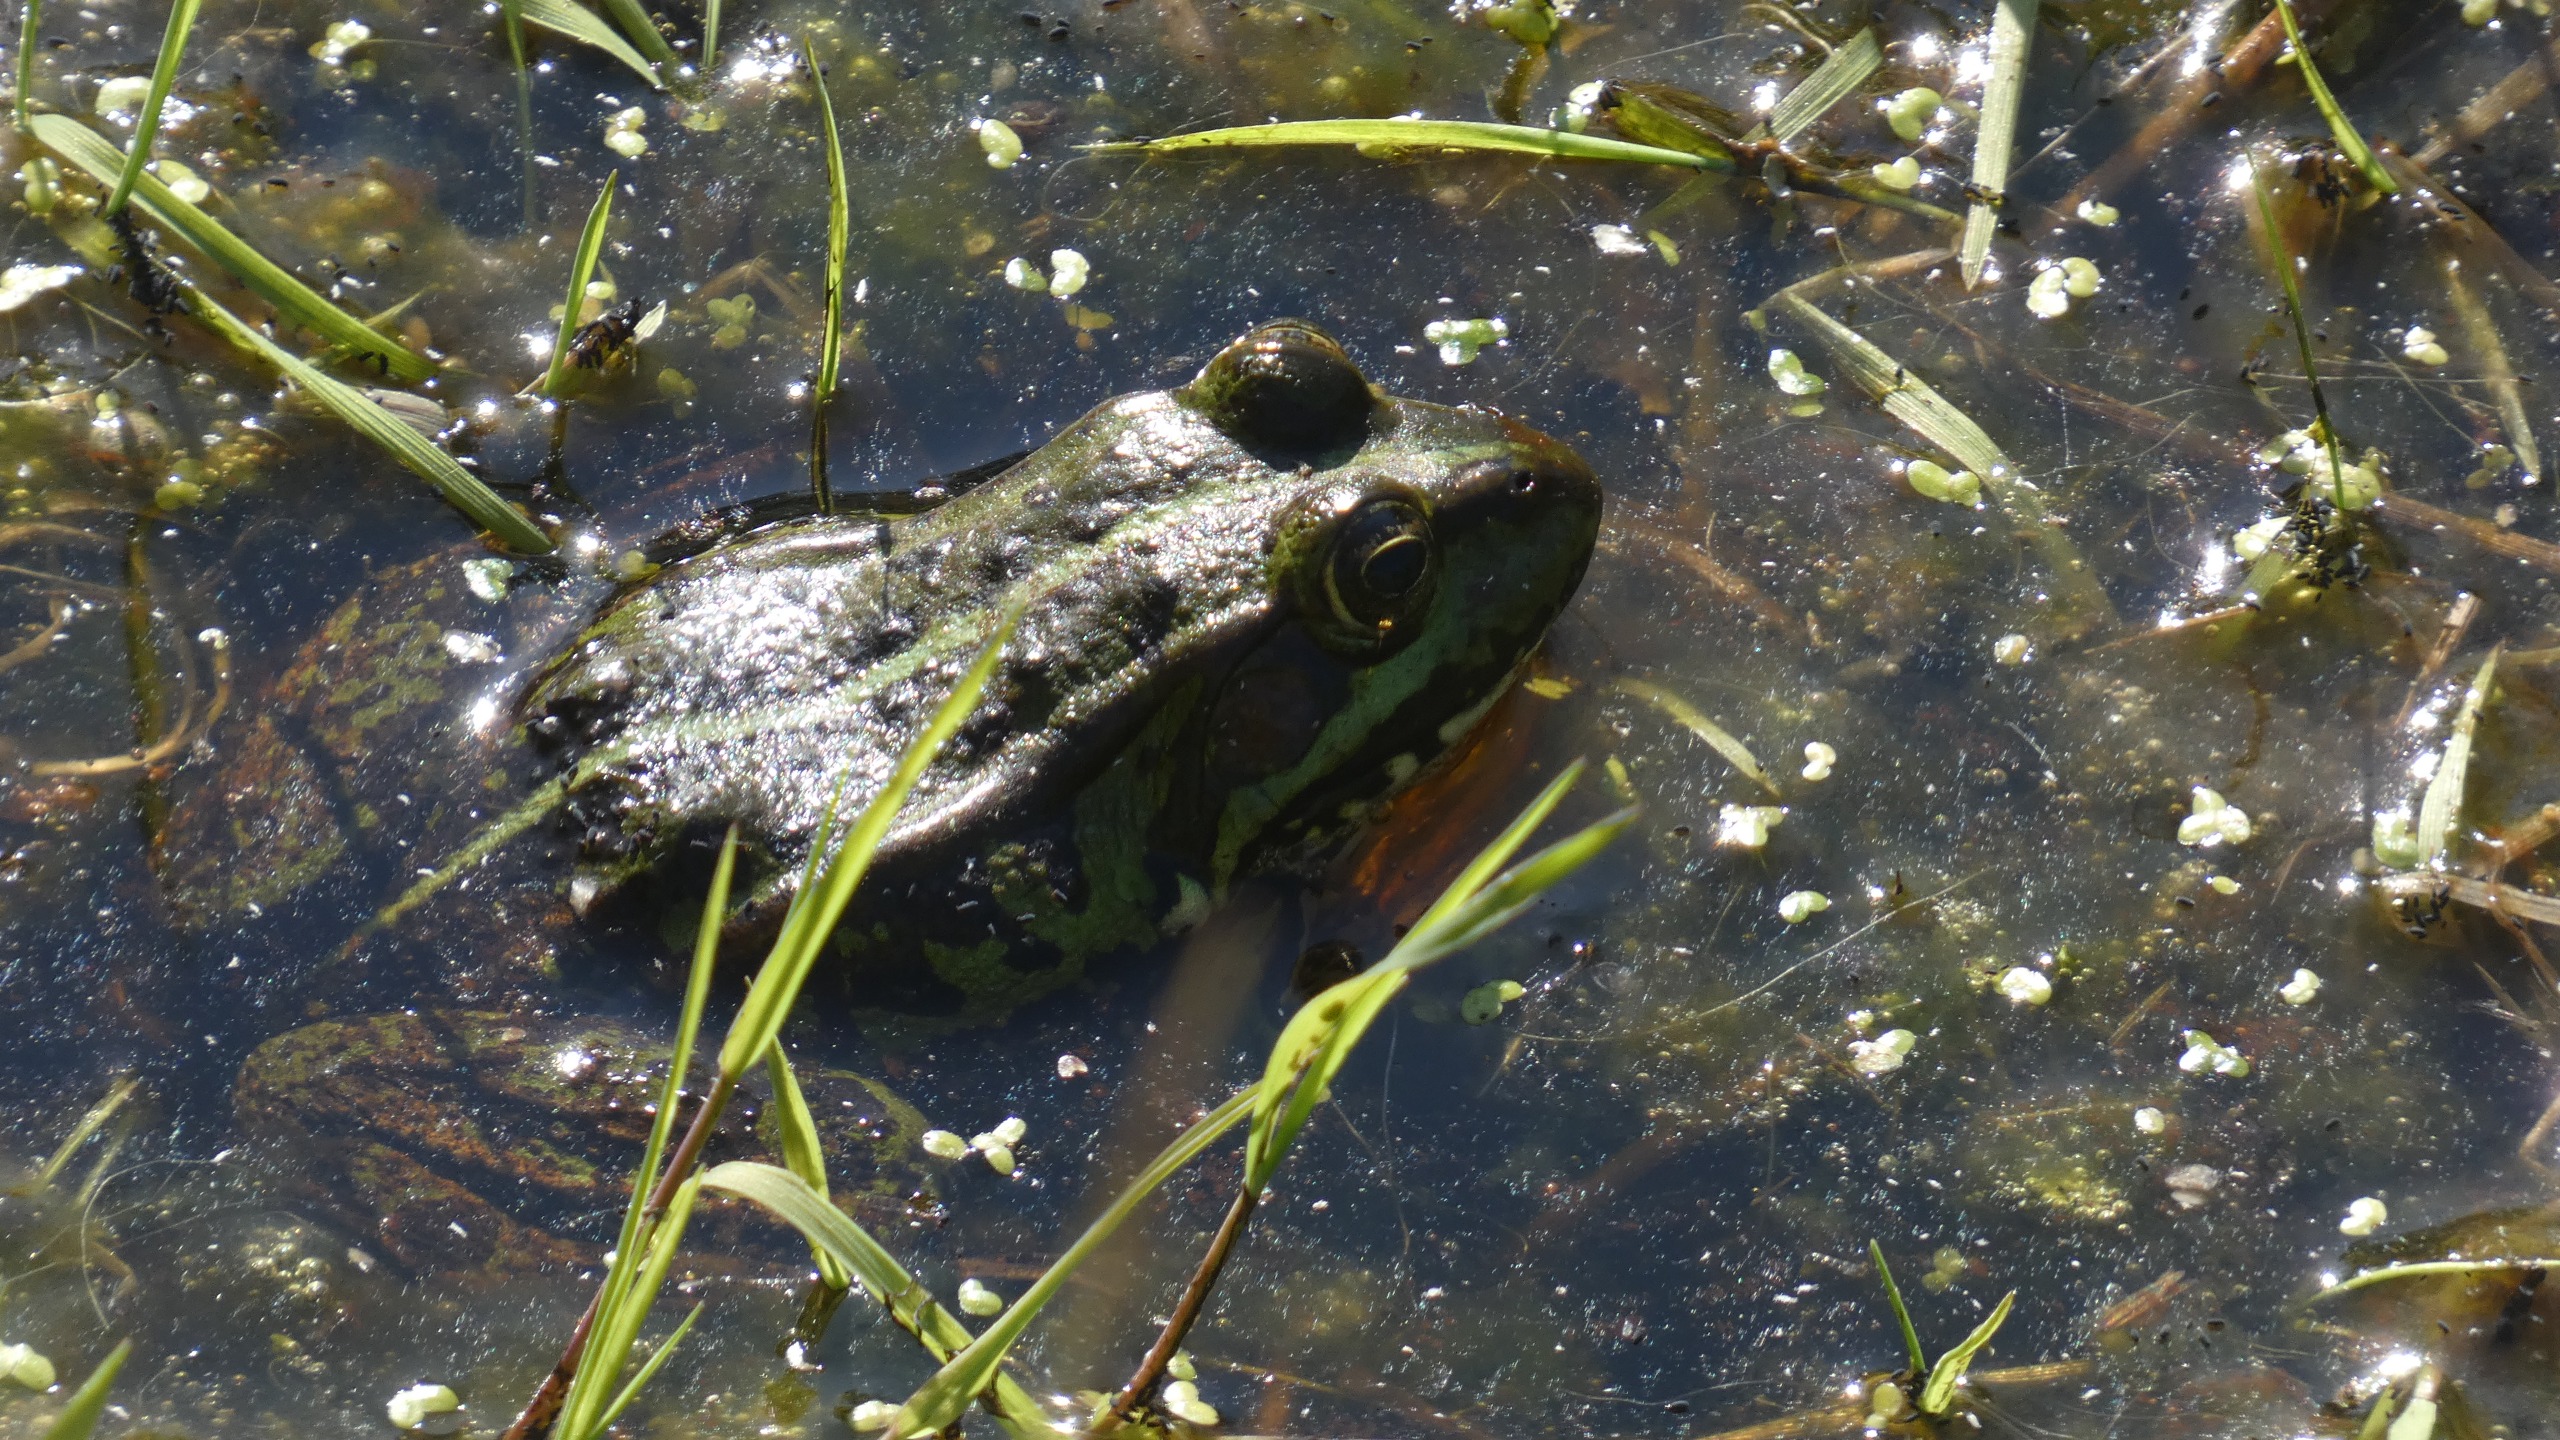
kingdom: Animalia
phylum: Chordata
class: Amphibia
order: Anura
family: Ranidae
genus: Pelophylax
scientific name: Pelophylax lessonae
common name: Grøn frø
